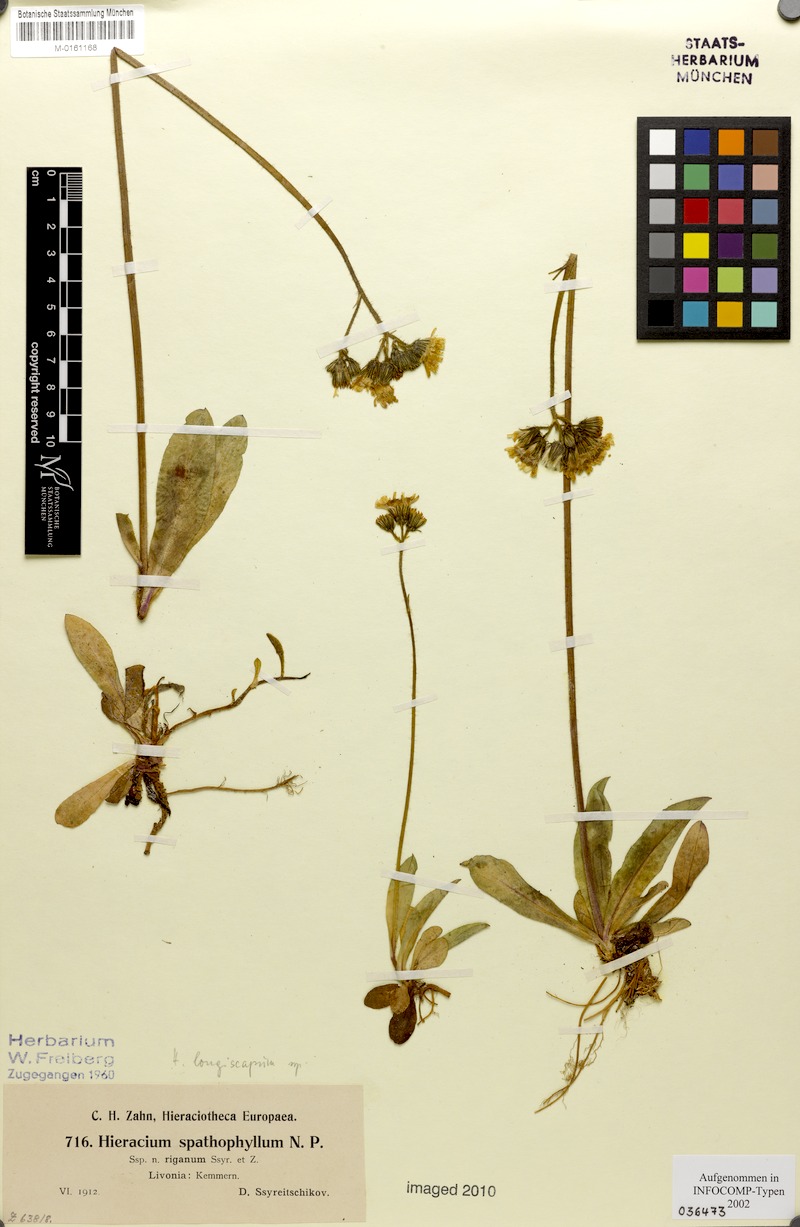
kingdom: Plantae
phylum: Tracheophyta
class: Magnoliopsida
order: Asterales
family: Asteraceae
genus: Pilosella
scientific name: Pilosella longiscapa
